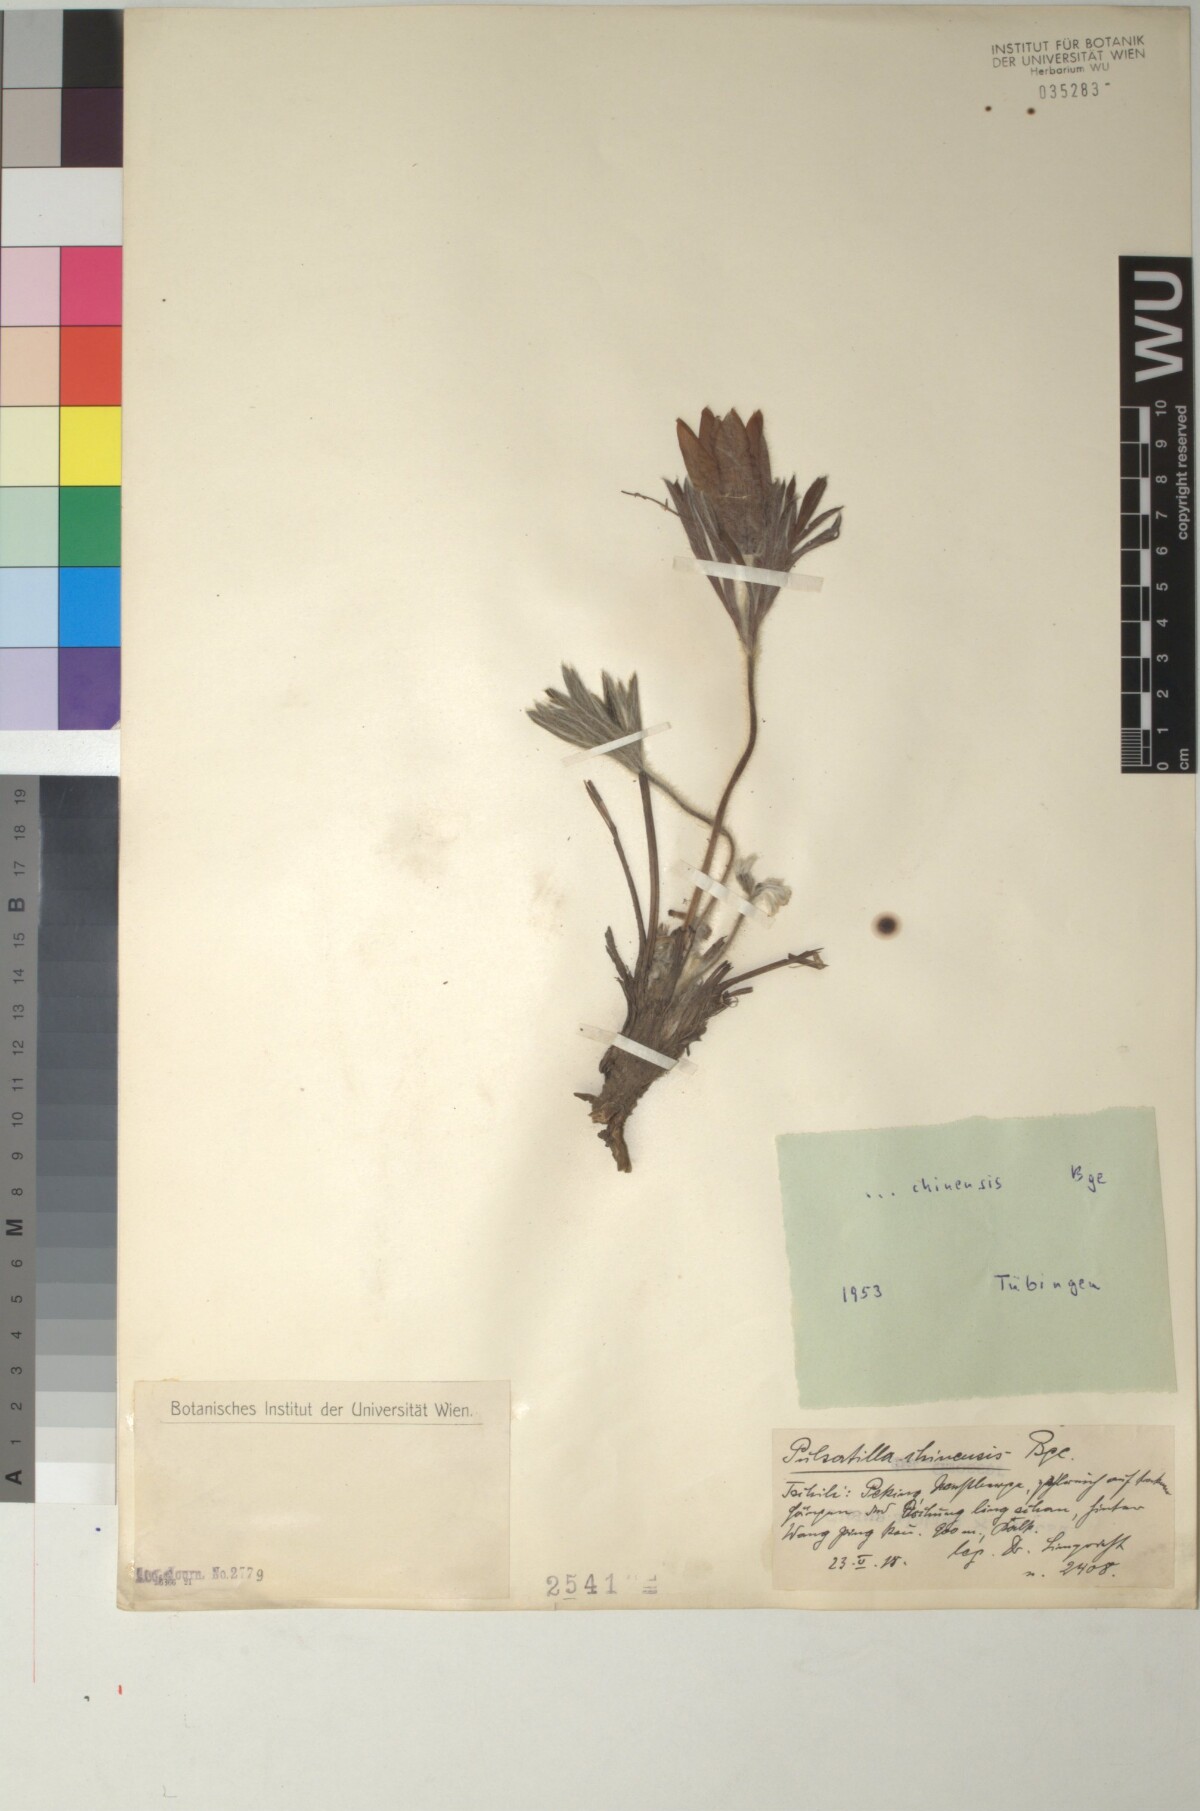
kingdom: Plantae
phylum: Tracheophyta
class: Magnoliopsida
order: Ranunculales
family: Ranunculaceae
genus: Pulsatilla
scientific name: Pulsatilla chinensis
